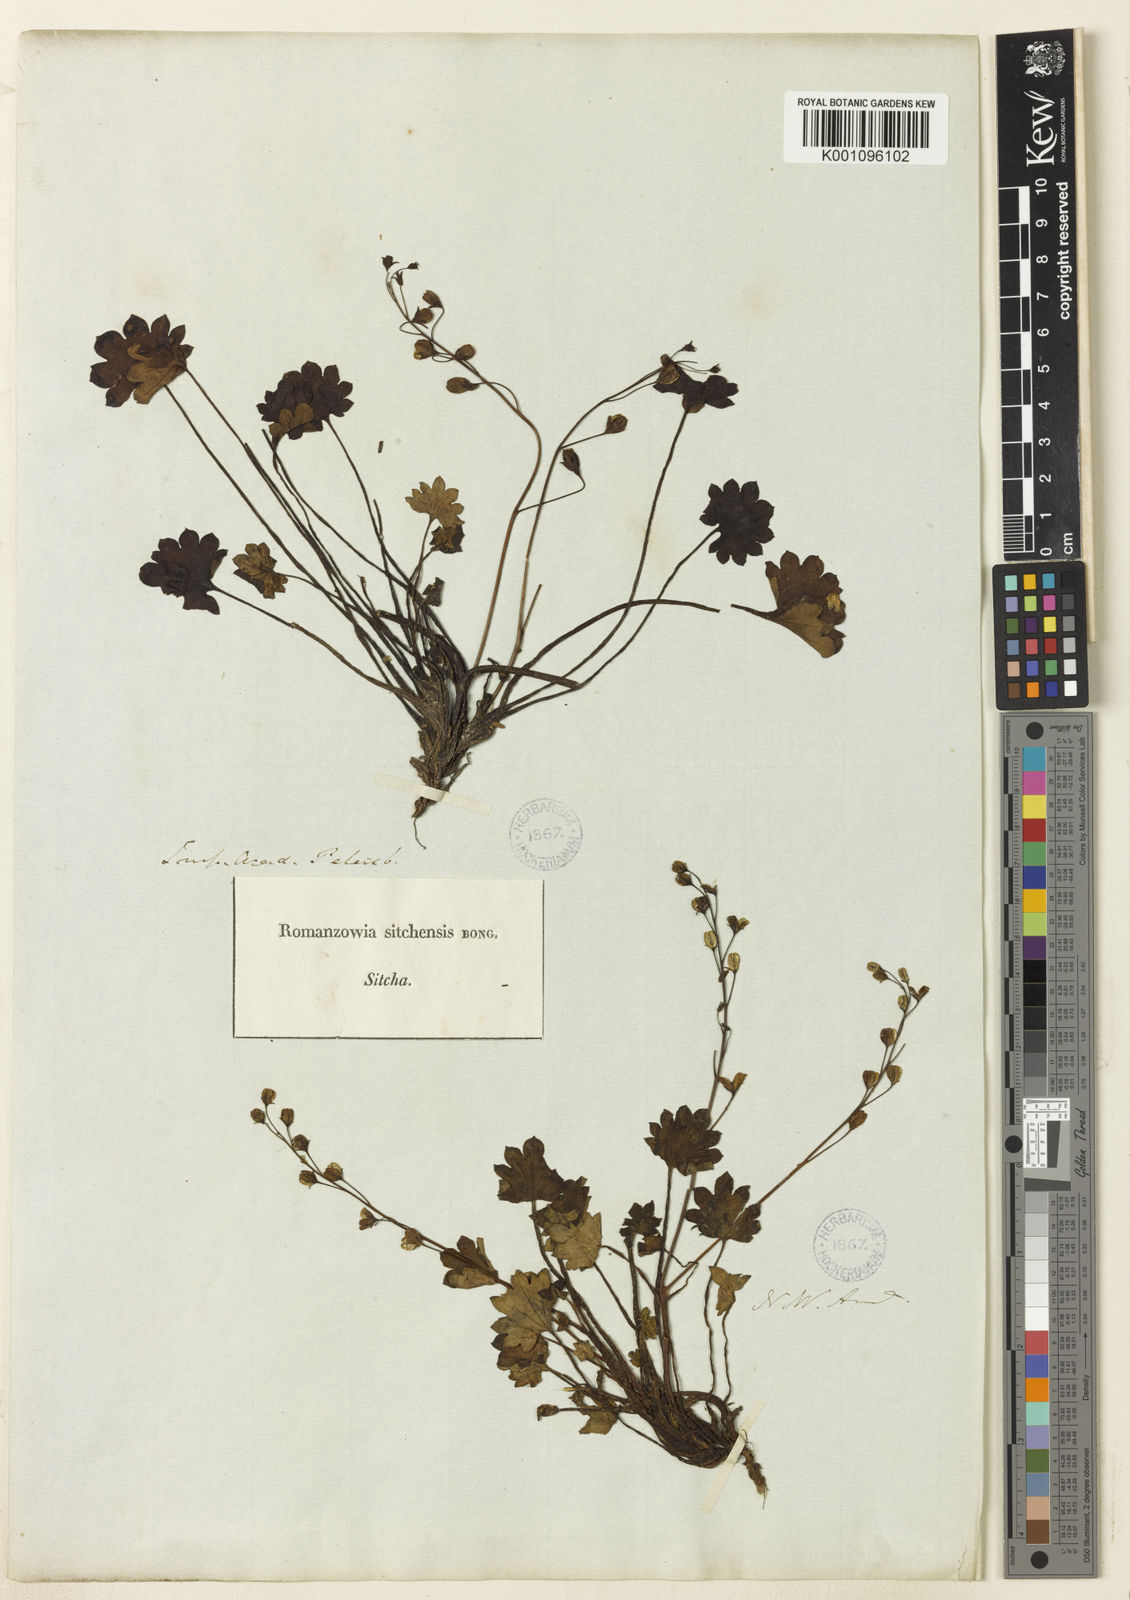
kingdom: Plantae
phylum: Tracheophyta
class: Magnoliopsida
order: Boraginales
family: Hydrophyllaceae
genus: Romanzoffia
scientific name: Romanzoffia sitchensis
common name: Sitka mistmaid
